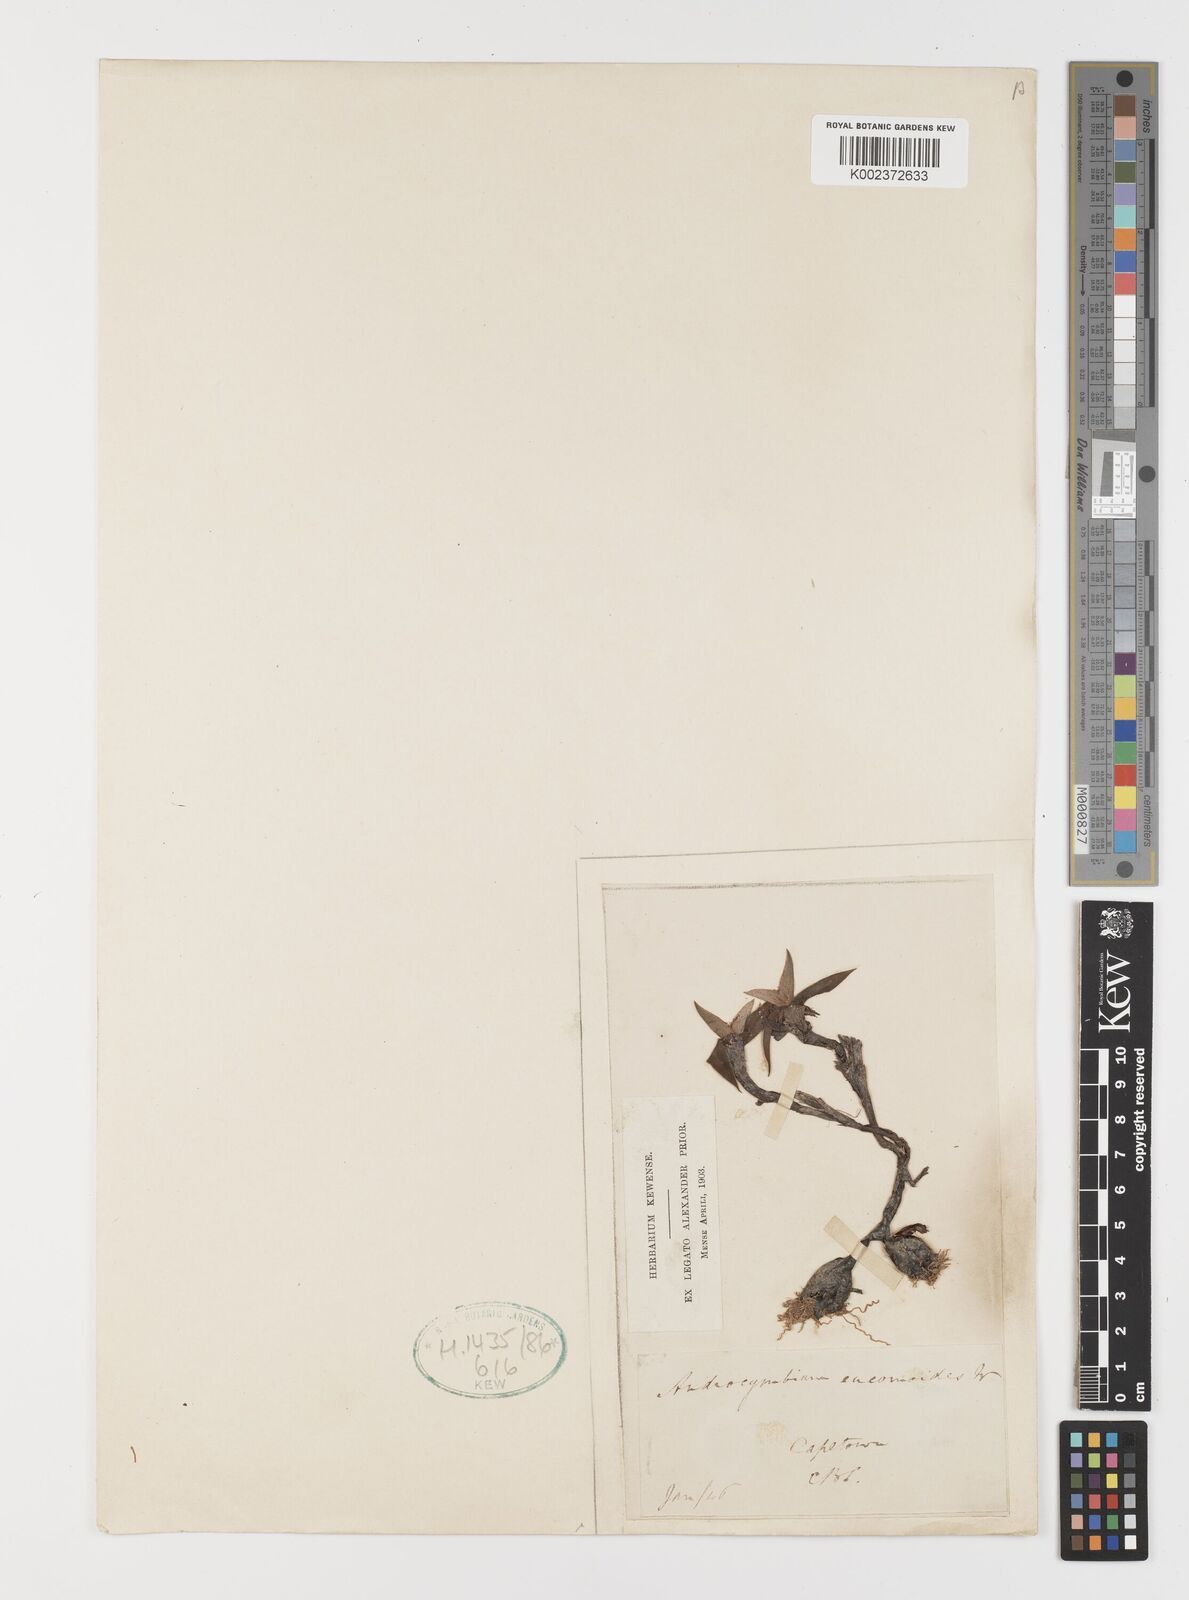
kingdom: Plantae
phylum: Tracheophyta
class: Liliopsida
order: Liliales
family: Colchicaceae
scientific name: Colchicaceae
